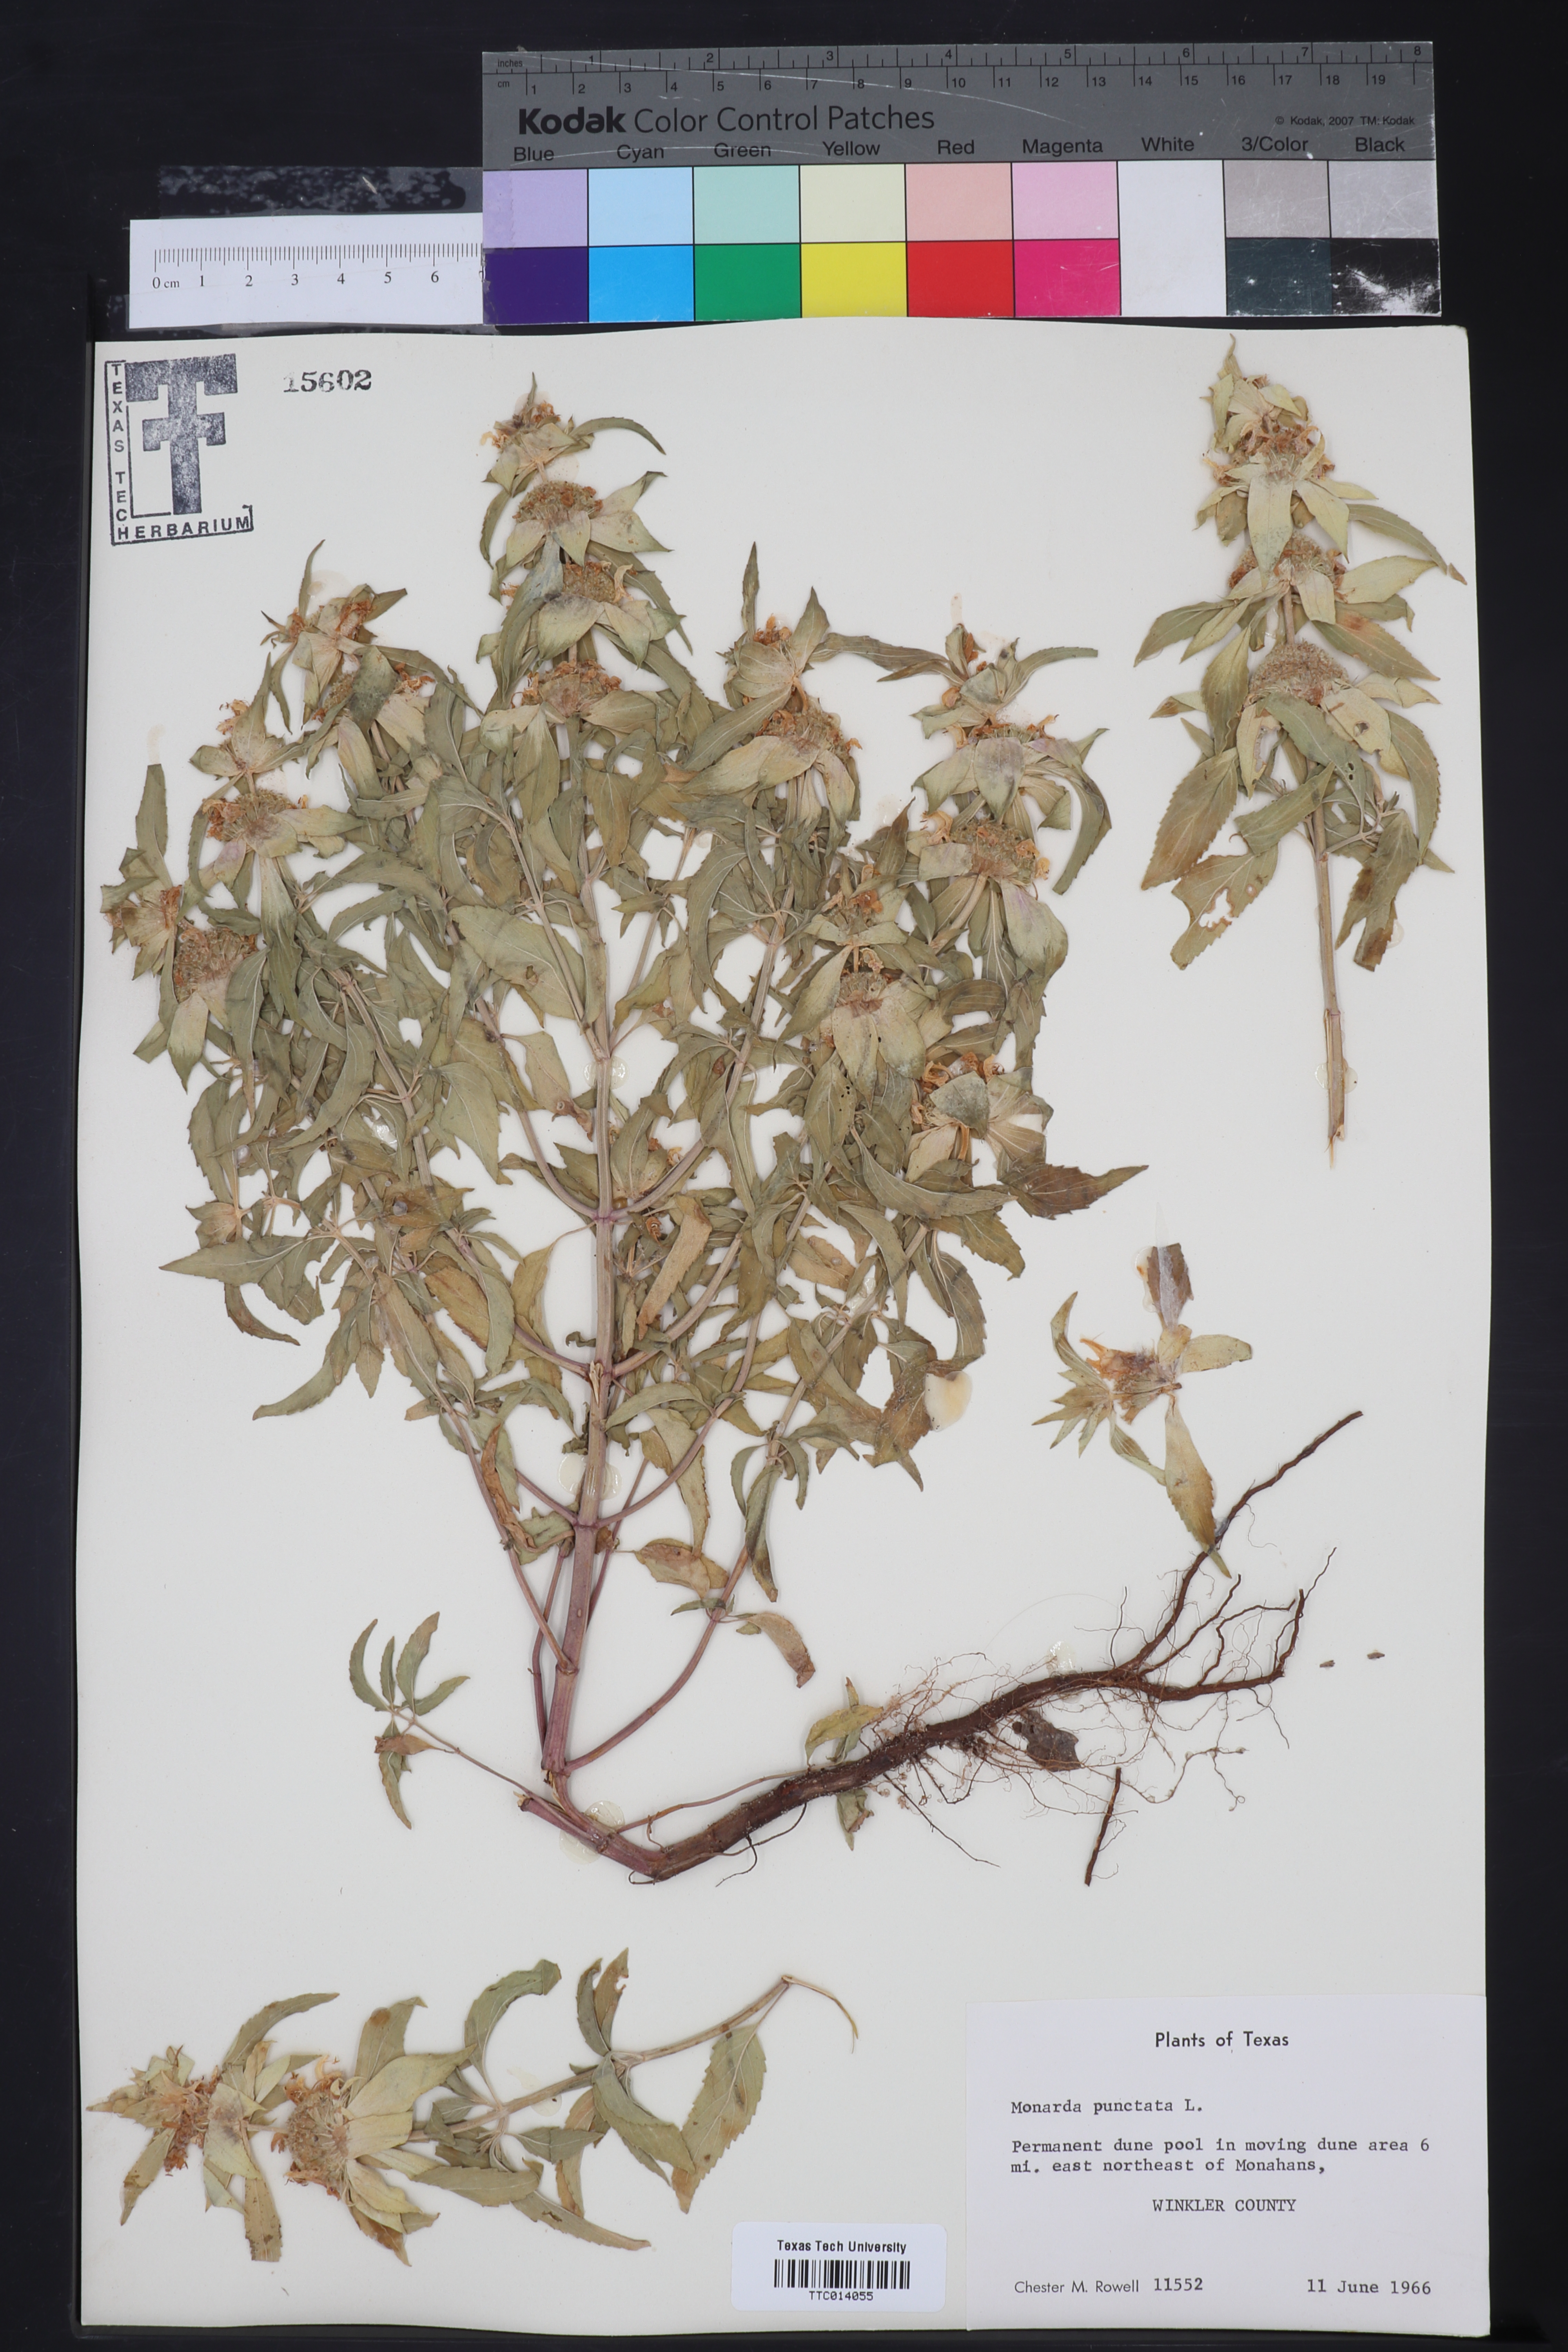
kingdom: Plantae
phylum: Tracheophyta
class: Magnoliopsida
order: Lamiales
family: Lamiaceae
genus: Monarda
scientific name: Monarda punctata
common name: Dotted monarda
